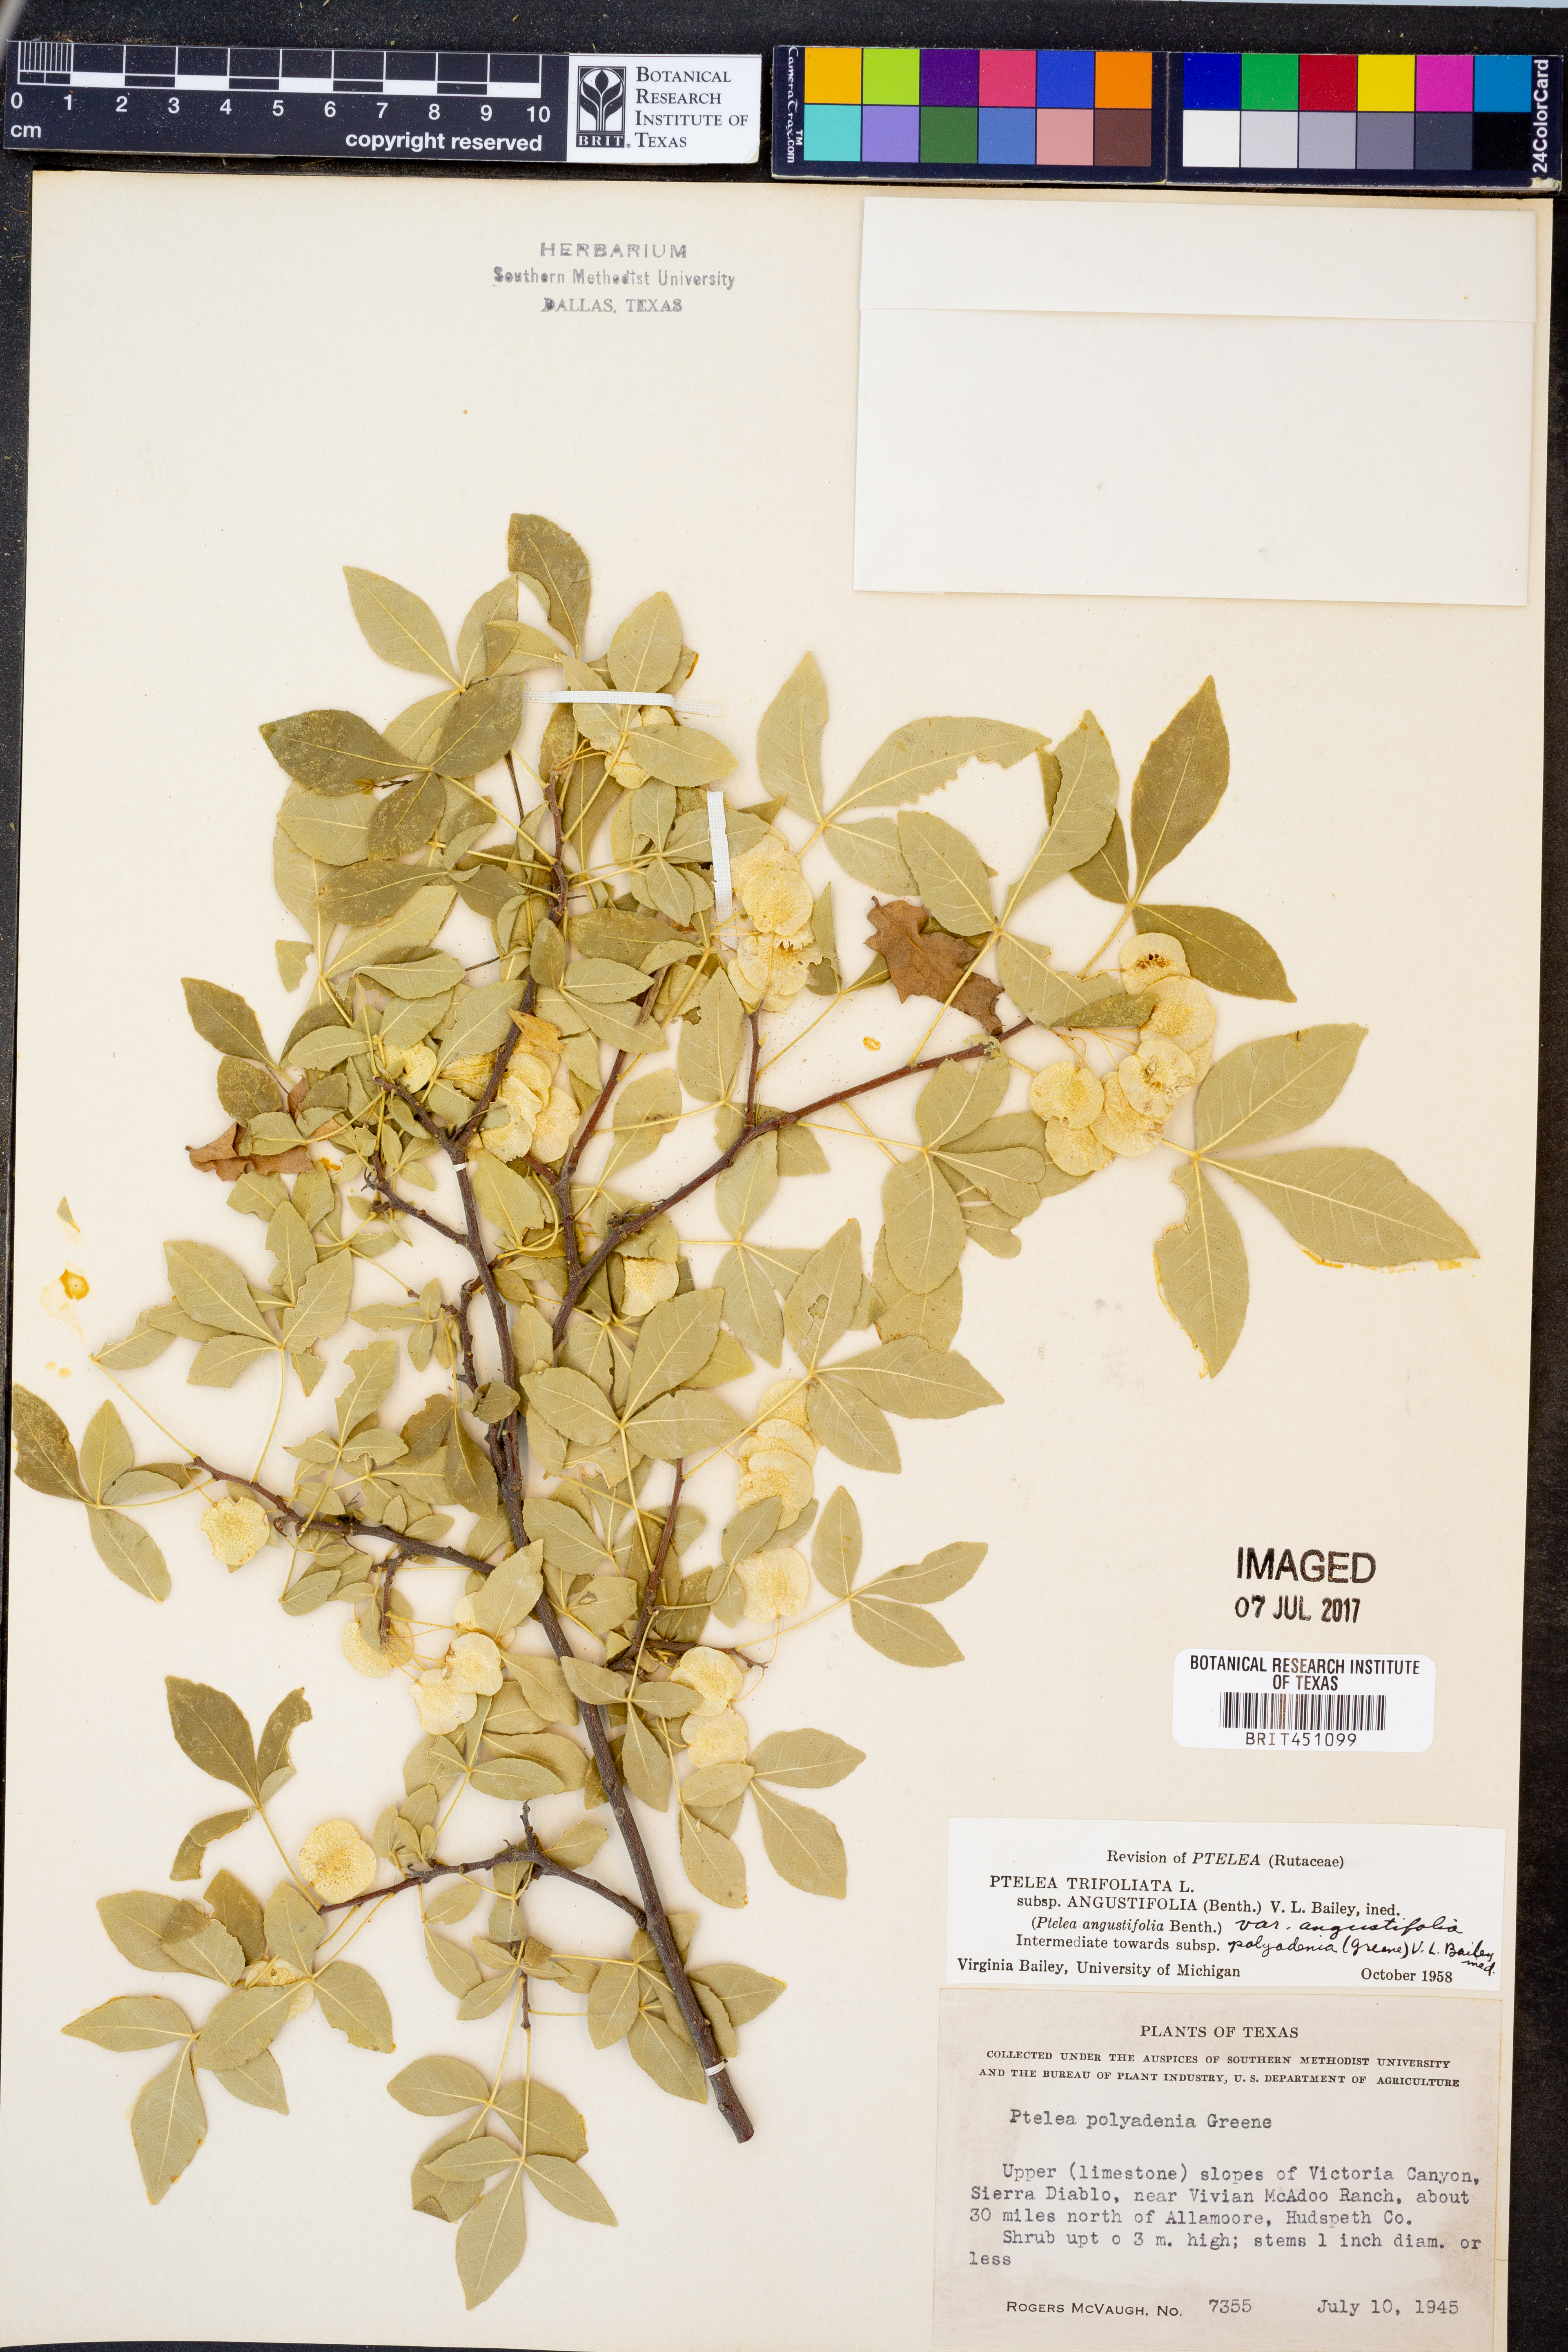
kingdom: Plantae
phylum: Tracheophyta
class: Magnoliopsida
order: Sapindales
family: Rutaceae
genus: Ptelea
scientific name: Ptelea trifoliata
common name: Common hop-tree
